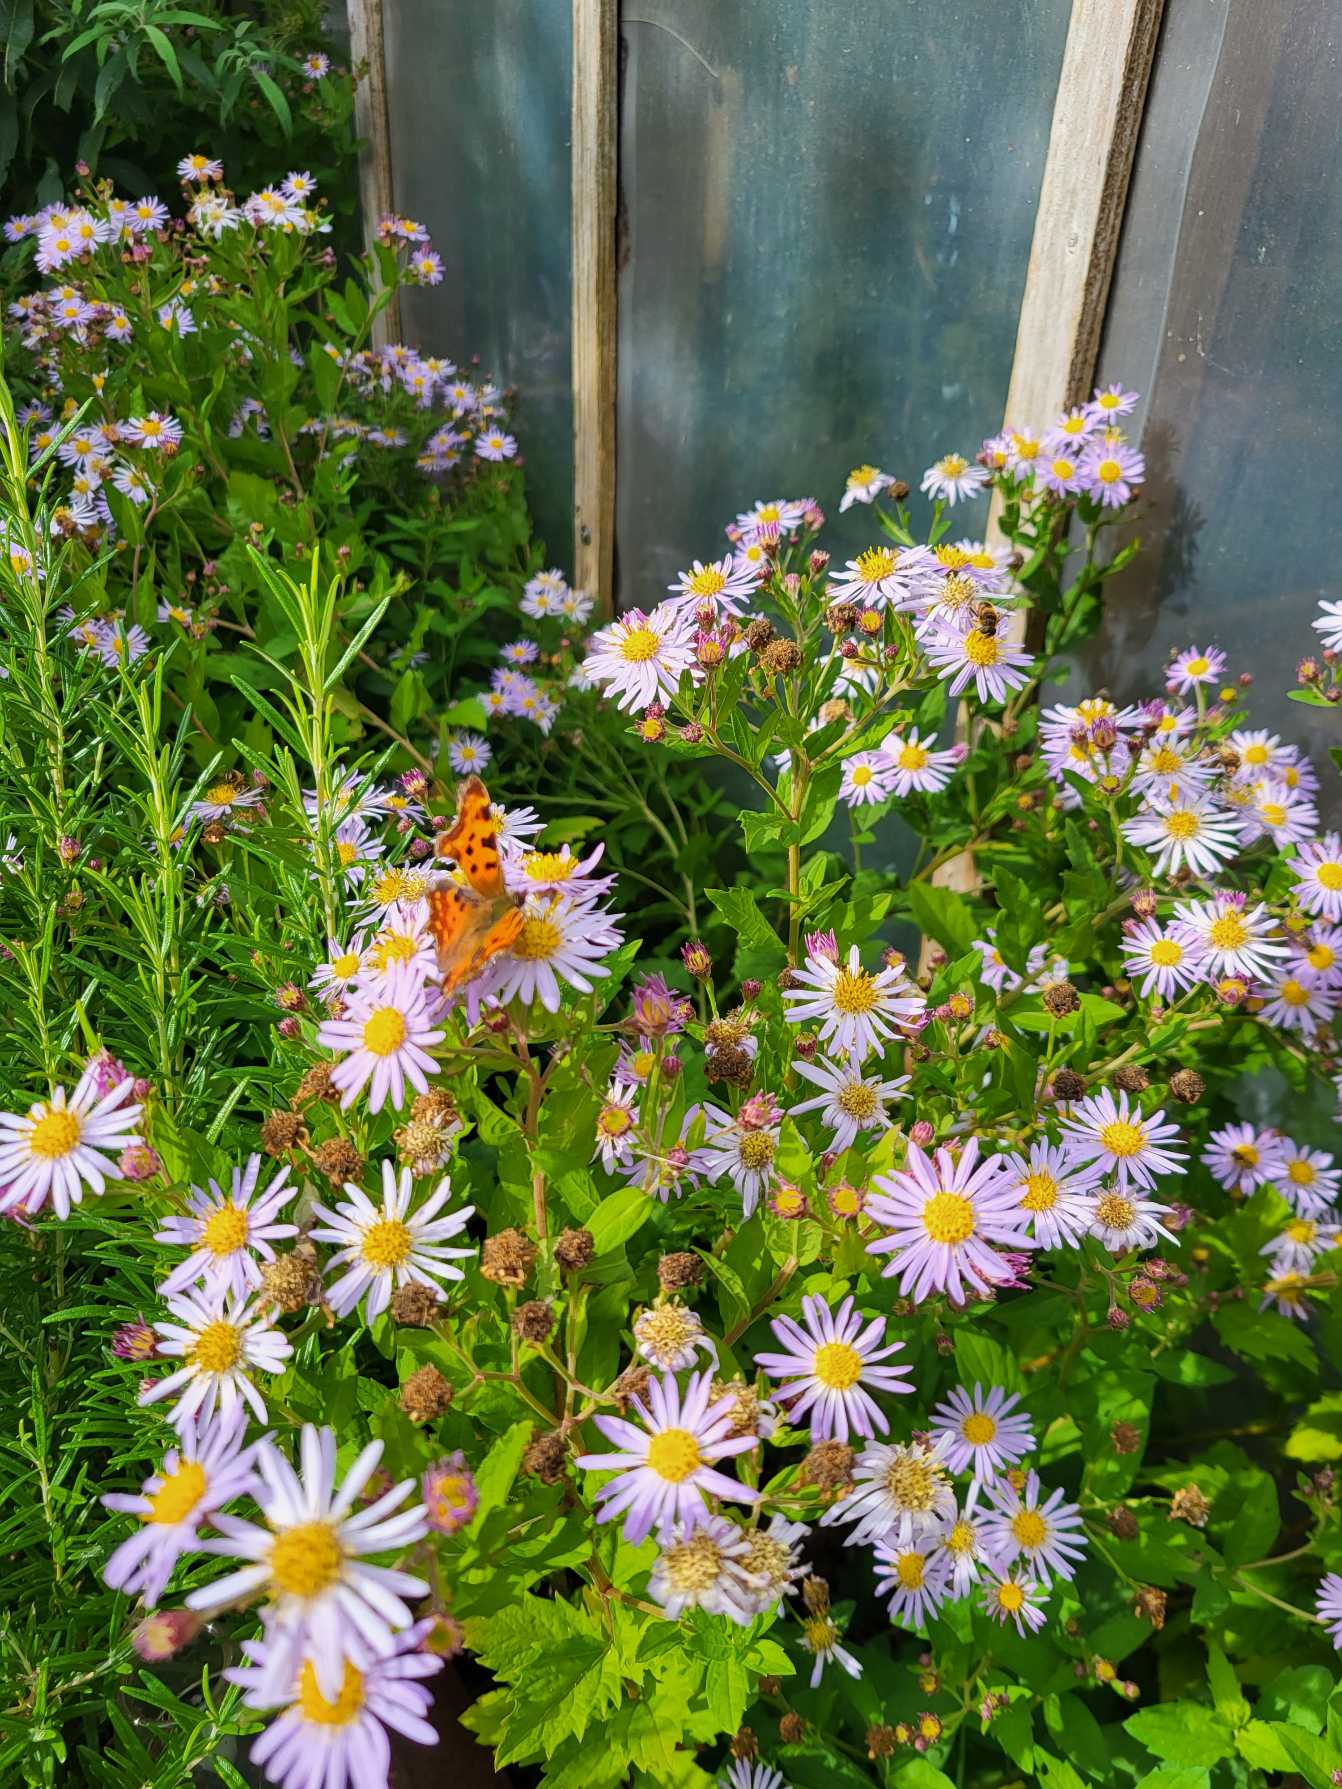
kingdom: Animalia
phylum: Arthropoda
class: Insecta
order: Lepidoptera
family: Nymphalidae
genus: Polygonia
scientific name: Polygonia c-album
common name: Det hvide C
